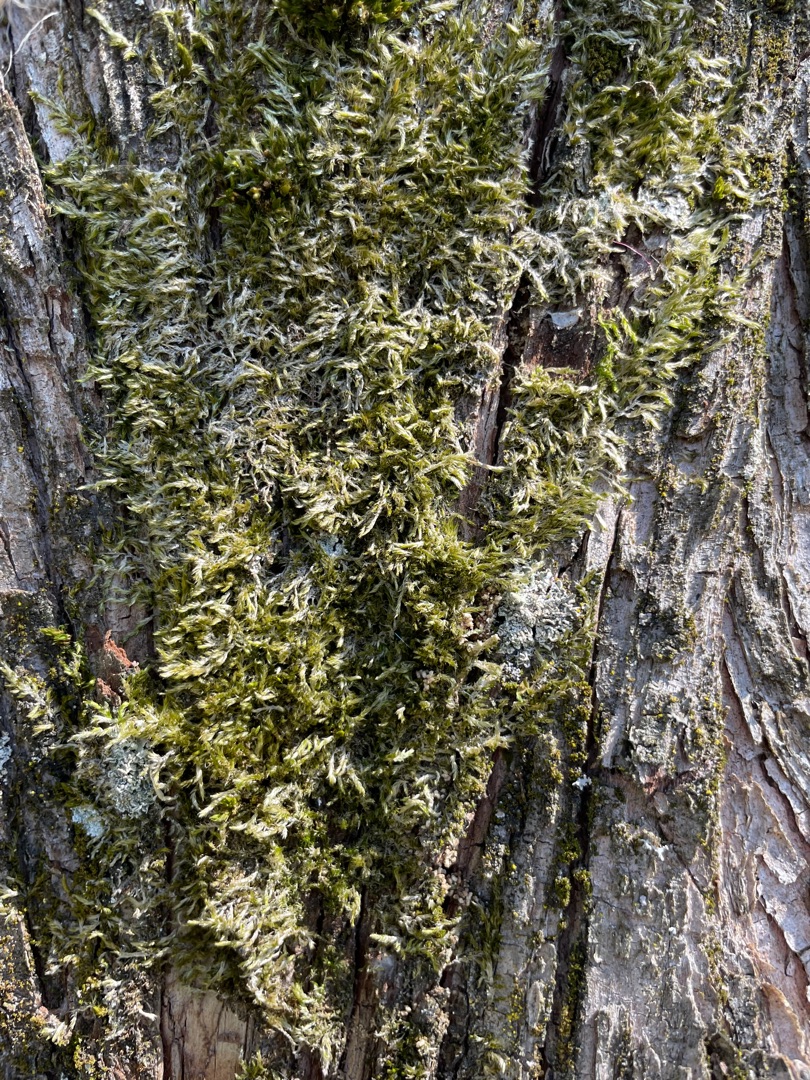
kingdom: Plantae
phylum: Bryophyta
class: Bryopsida
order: Hypnales
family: Hypnaceae
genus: Hypnum
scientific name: Hypnum
